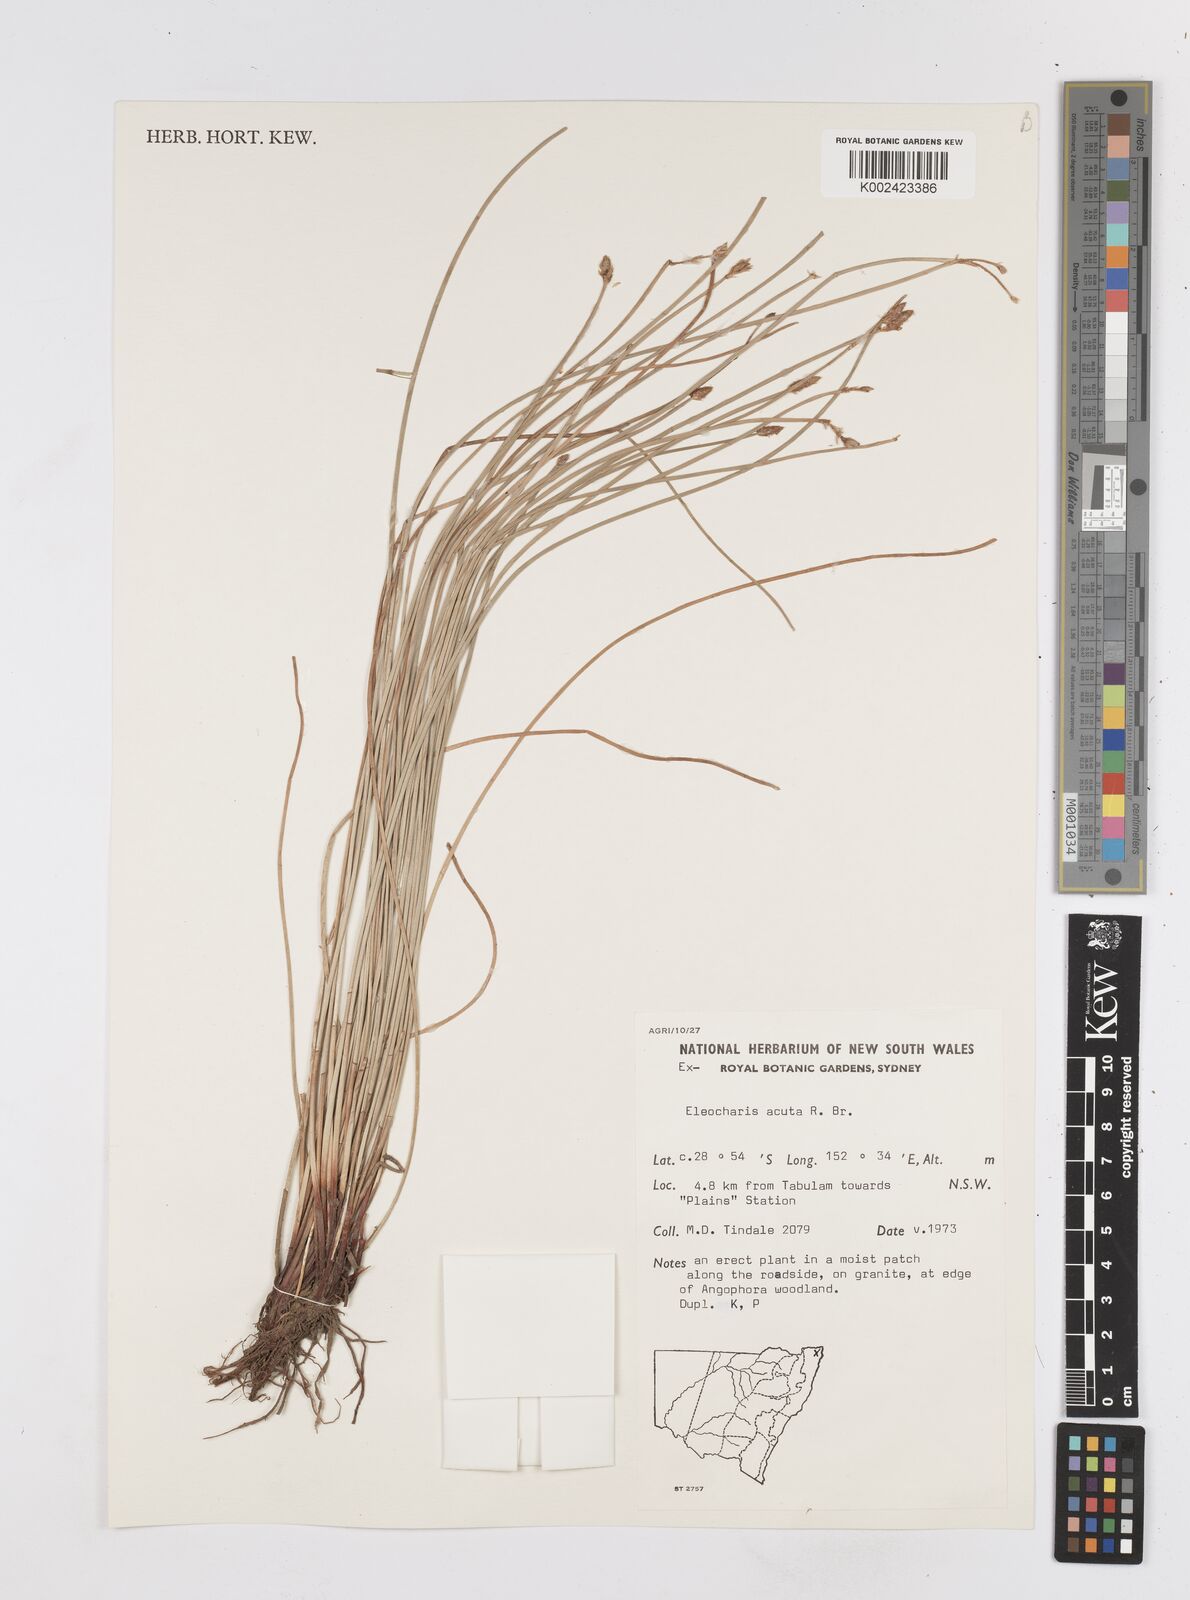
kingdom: Plantae
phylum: Tracheophyta
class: Liliopsida
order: Poales
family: Cyperaceae
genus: Eleocharis
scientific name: Eleocharis acuta
